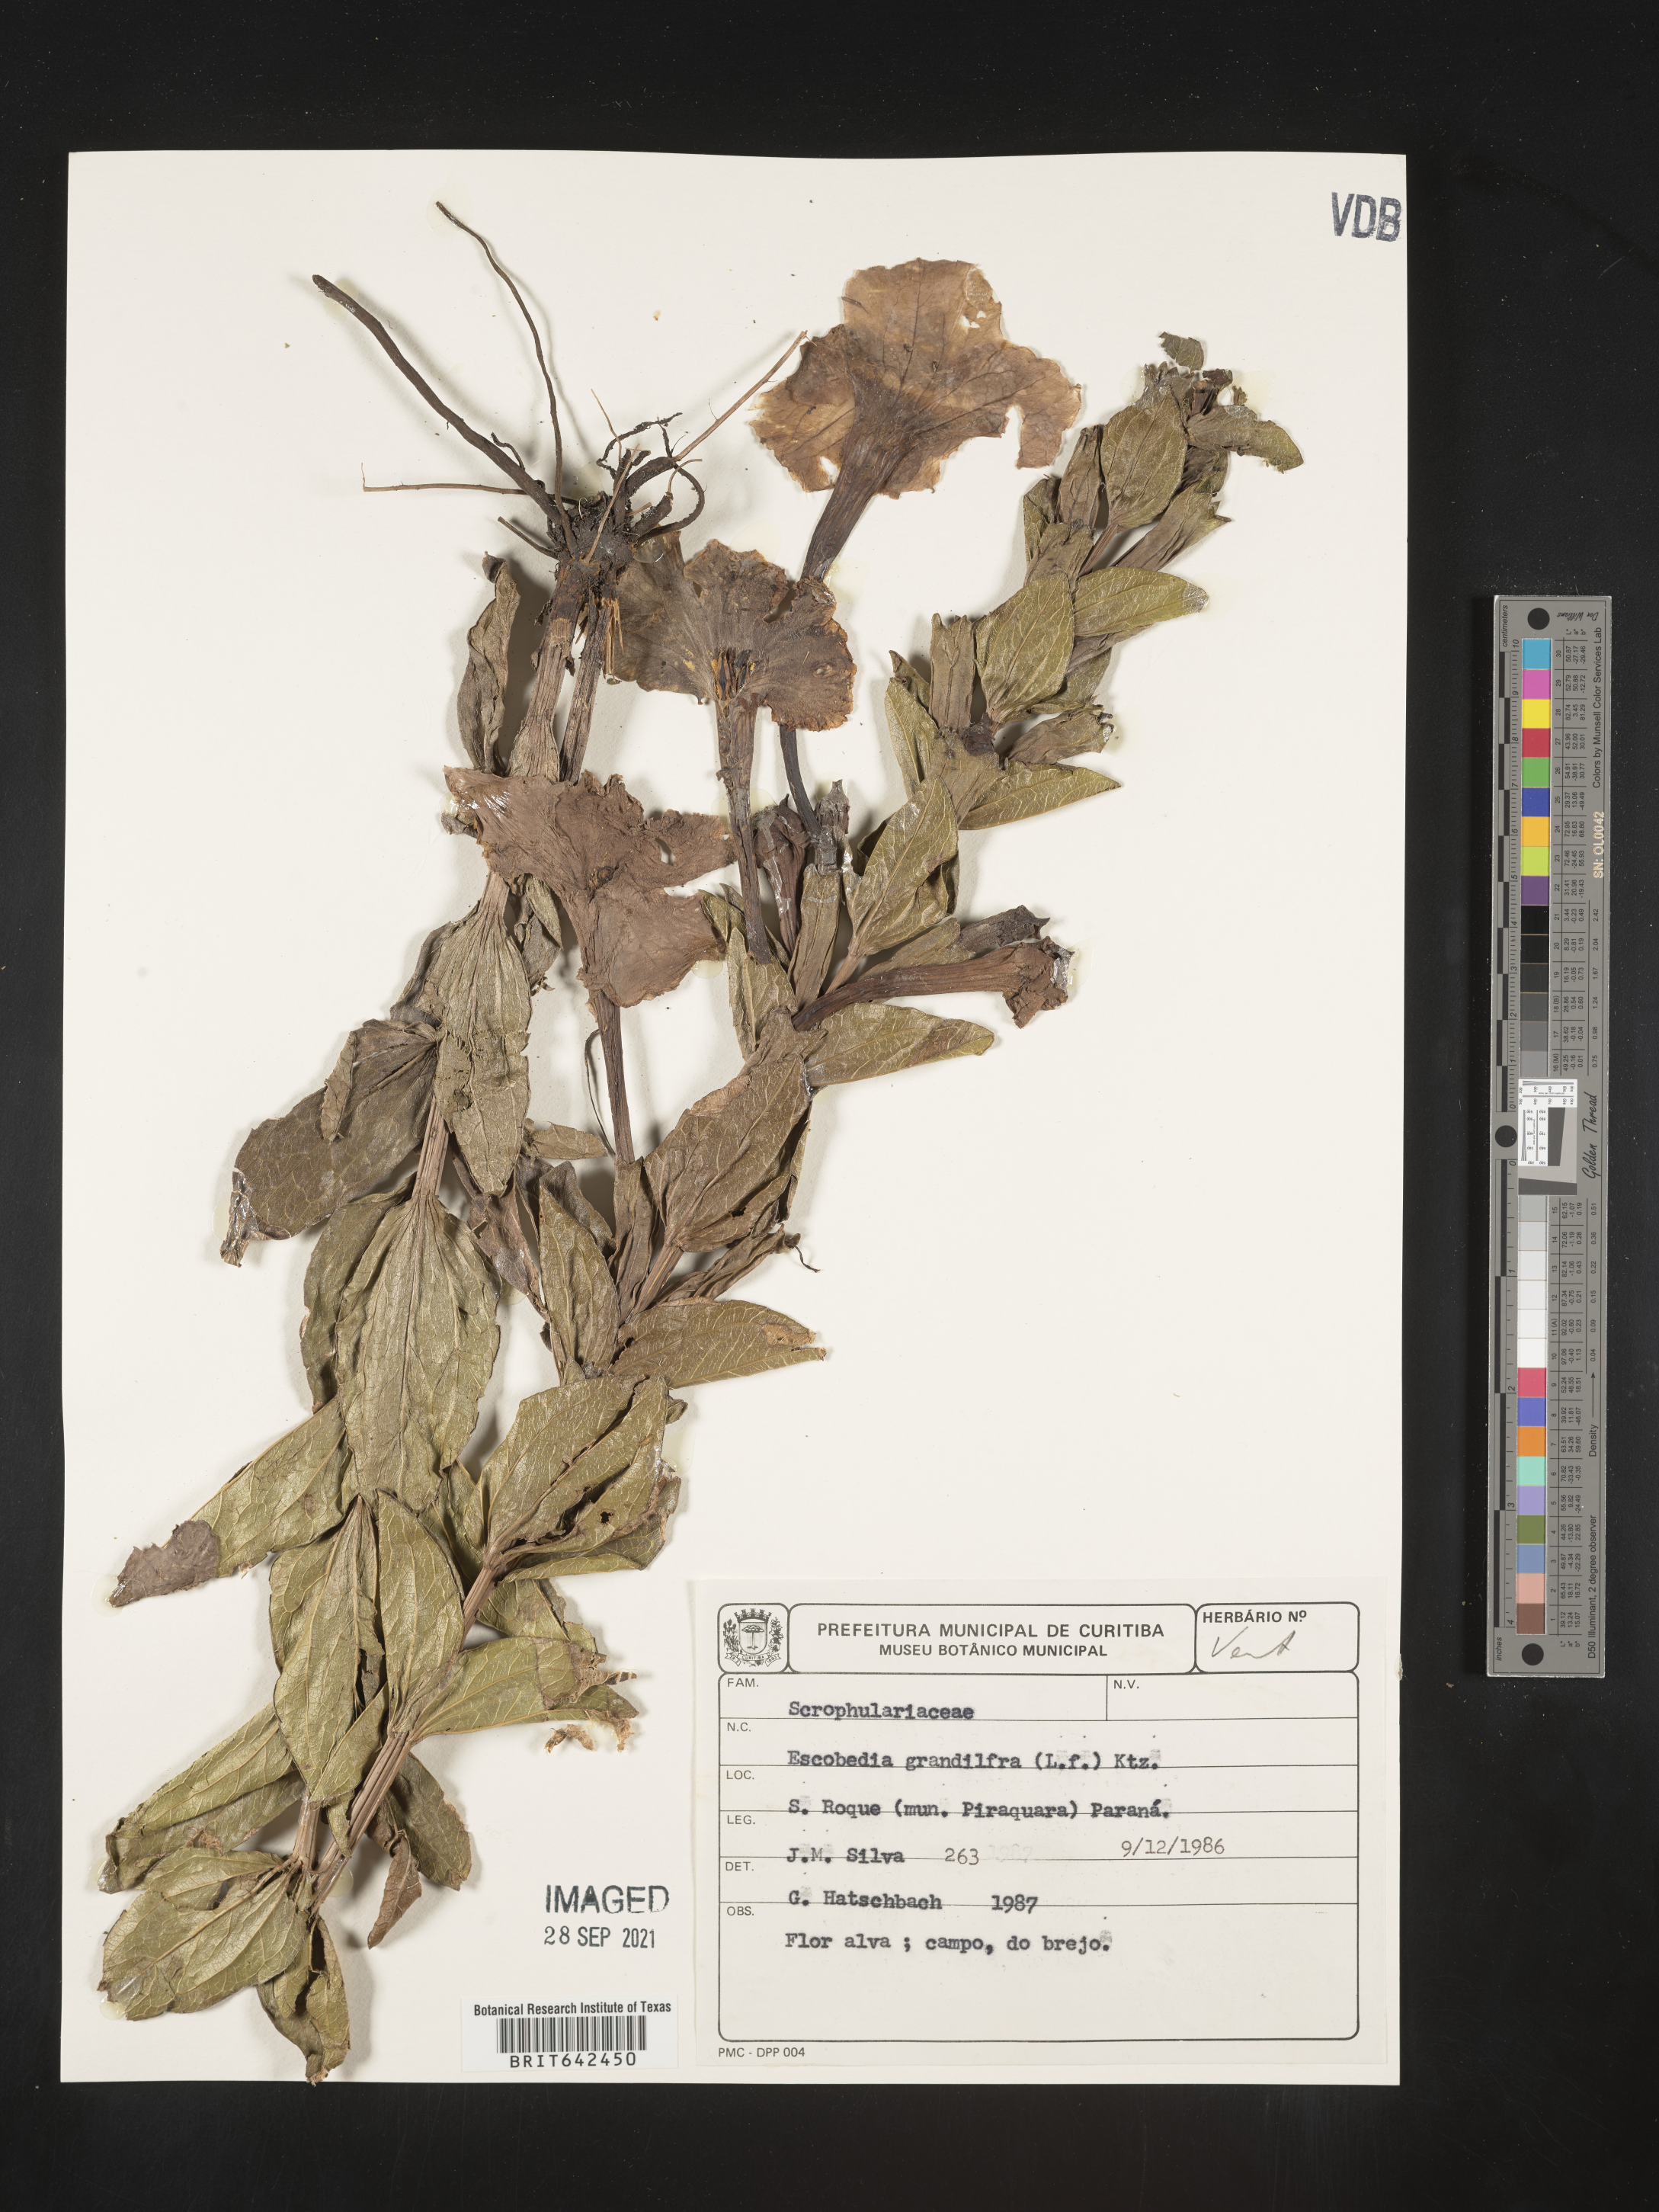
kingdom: Plantae
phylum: Tracheophyta
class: Magnoliopsida
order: Lamiales
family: Orobanchaceae
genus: Escobedia
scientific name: Escobedia
